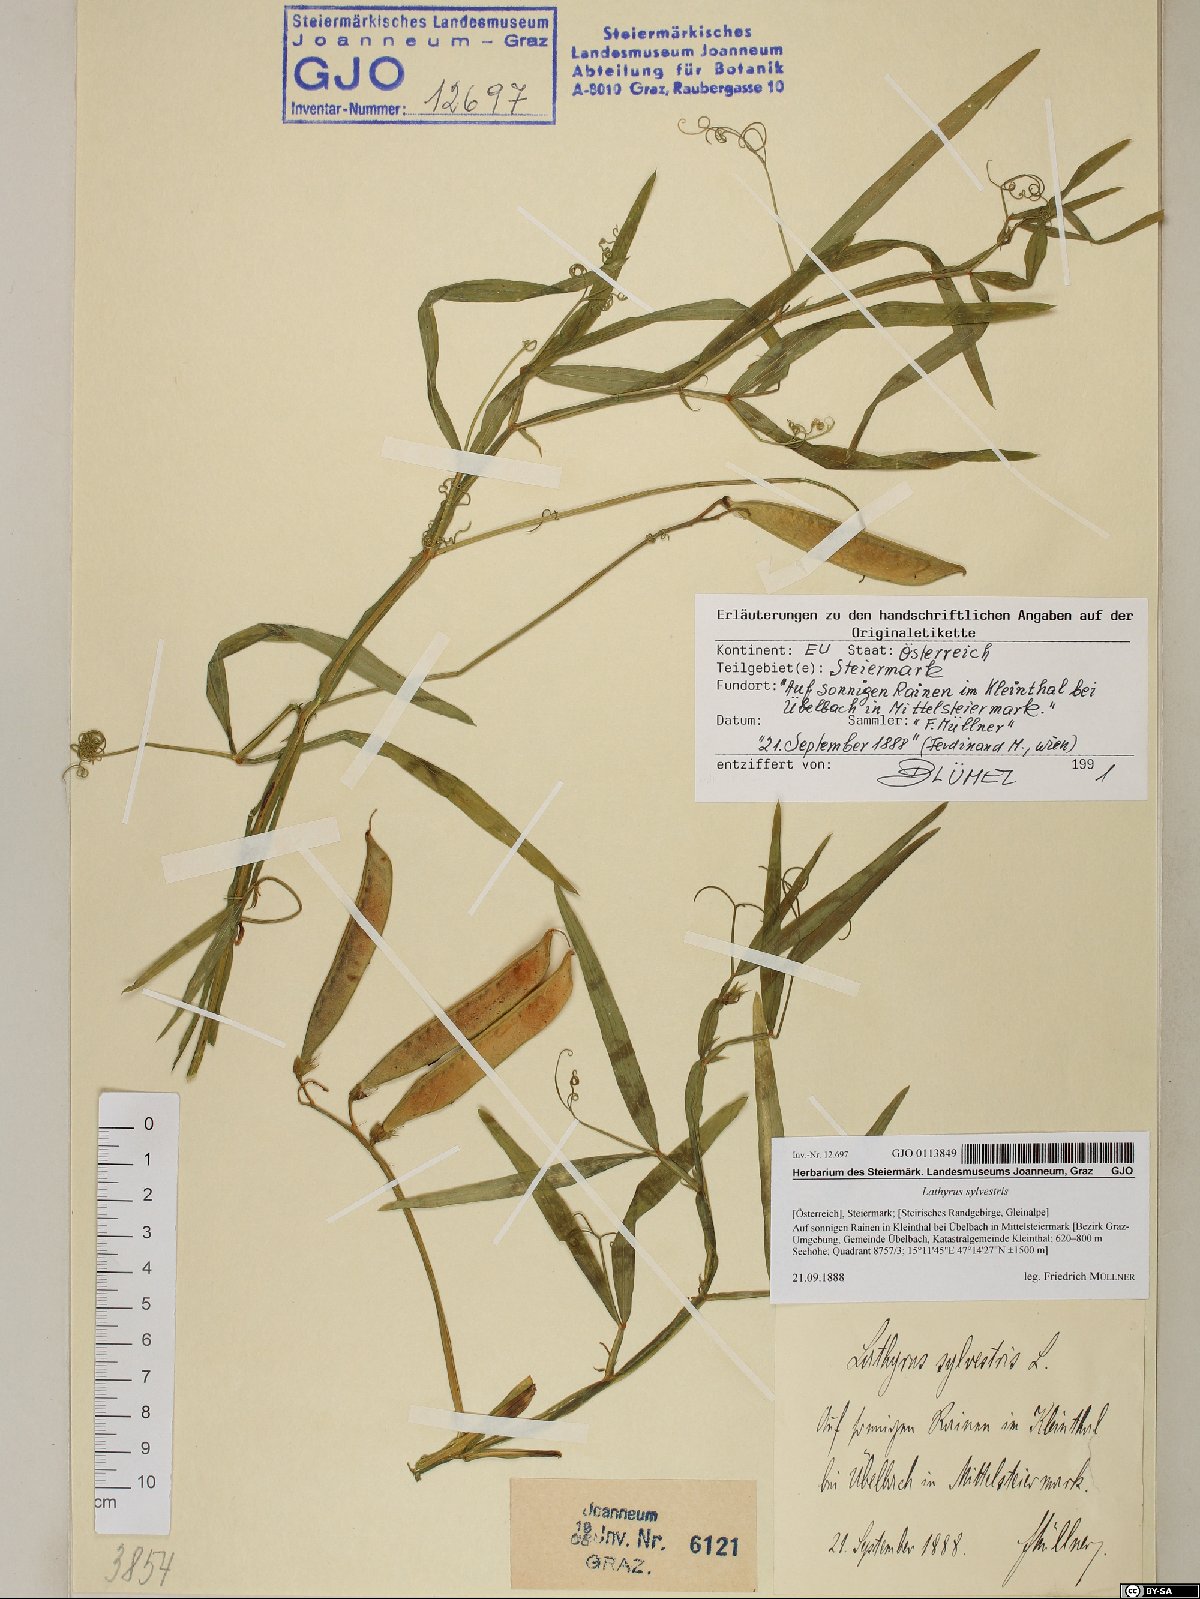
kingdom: Plantae
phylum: Tracheophyta
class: Magnoliopsida
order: Fabales
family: Fabaceae
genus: Lathyrus
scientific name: Lathyrus sylvestris
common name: Flat pea
